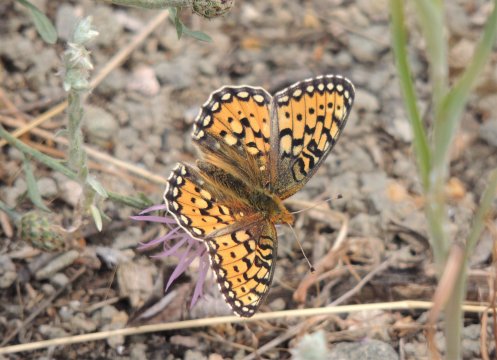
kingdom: Animalia
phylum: Arthropoda
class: Insecta
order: Lepidoptera
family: Nymphalidae
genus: Speyeria
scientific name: Speyeria mormonia
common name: Mormon Fritillary
